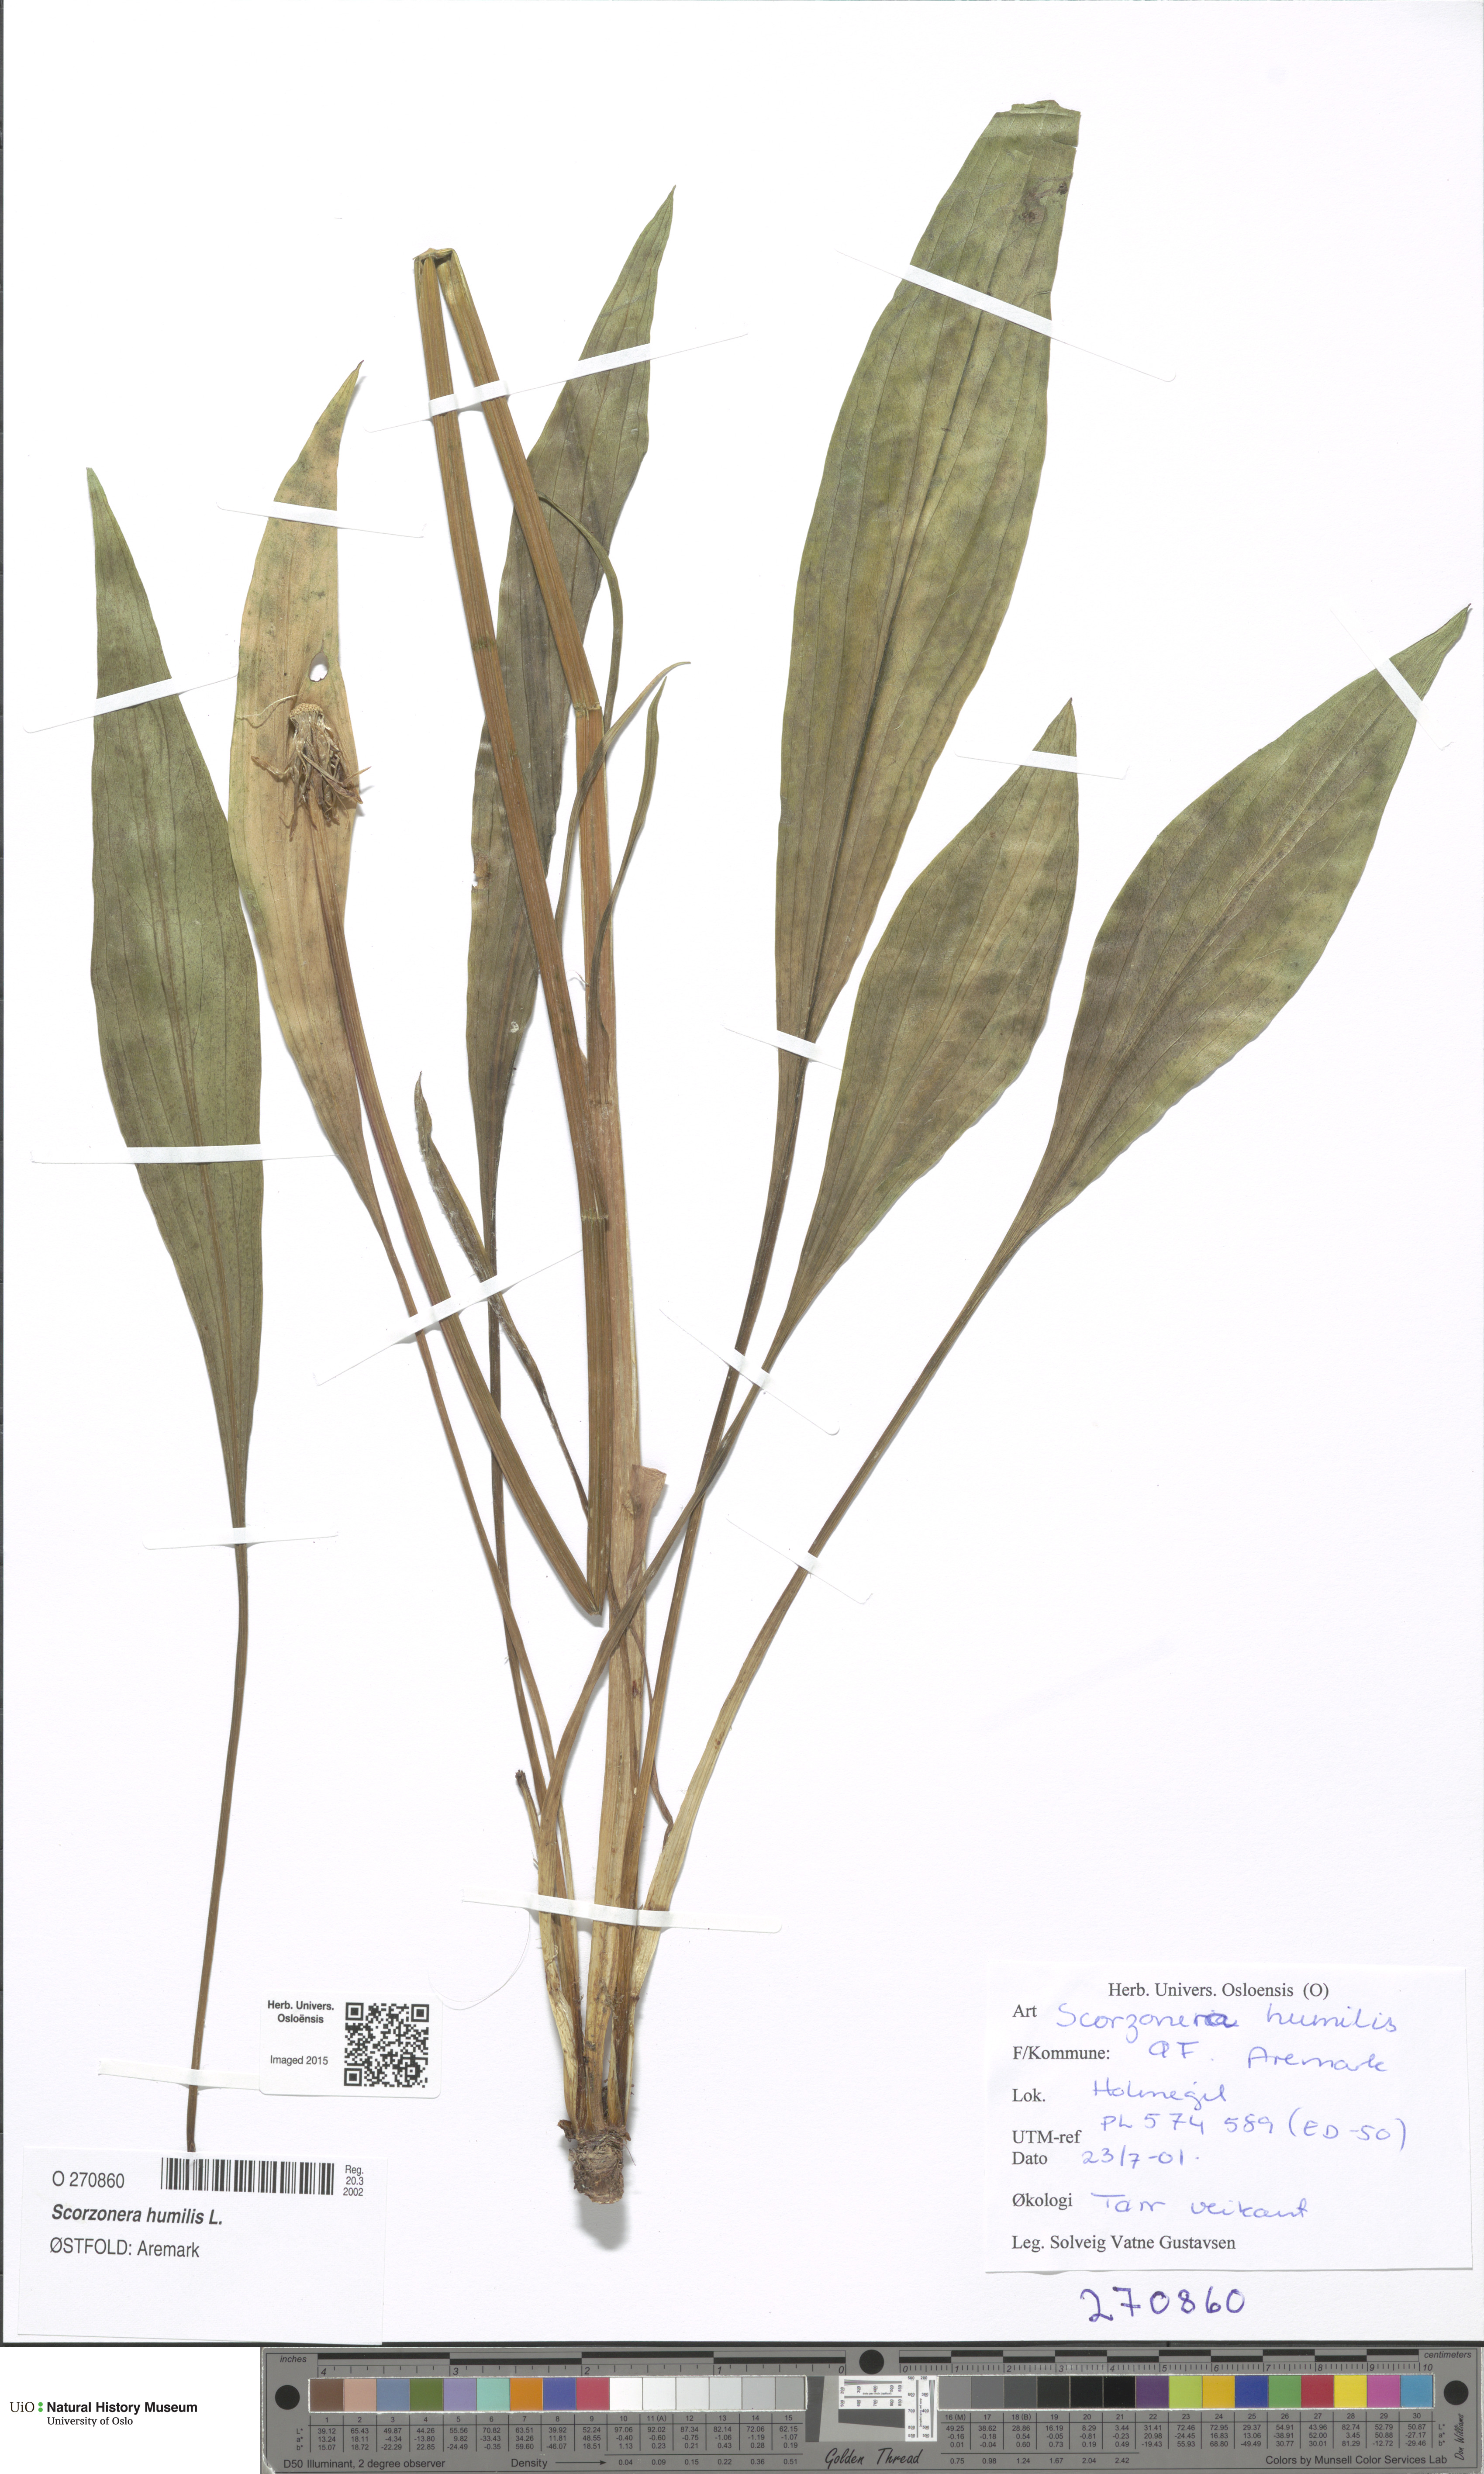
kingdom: Plantae
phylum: Tracheophyta
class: Magnoliopsida
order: Asterales
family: Asteraceae
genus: Scorzonera
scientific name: Scorzonera humilis
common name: Viper's-grass
